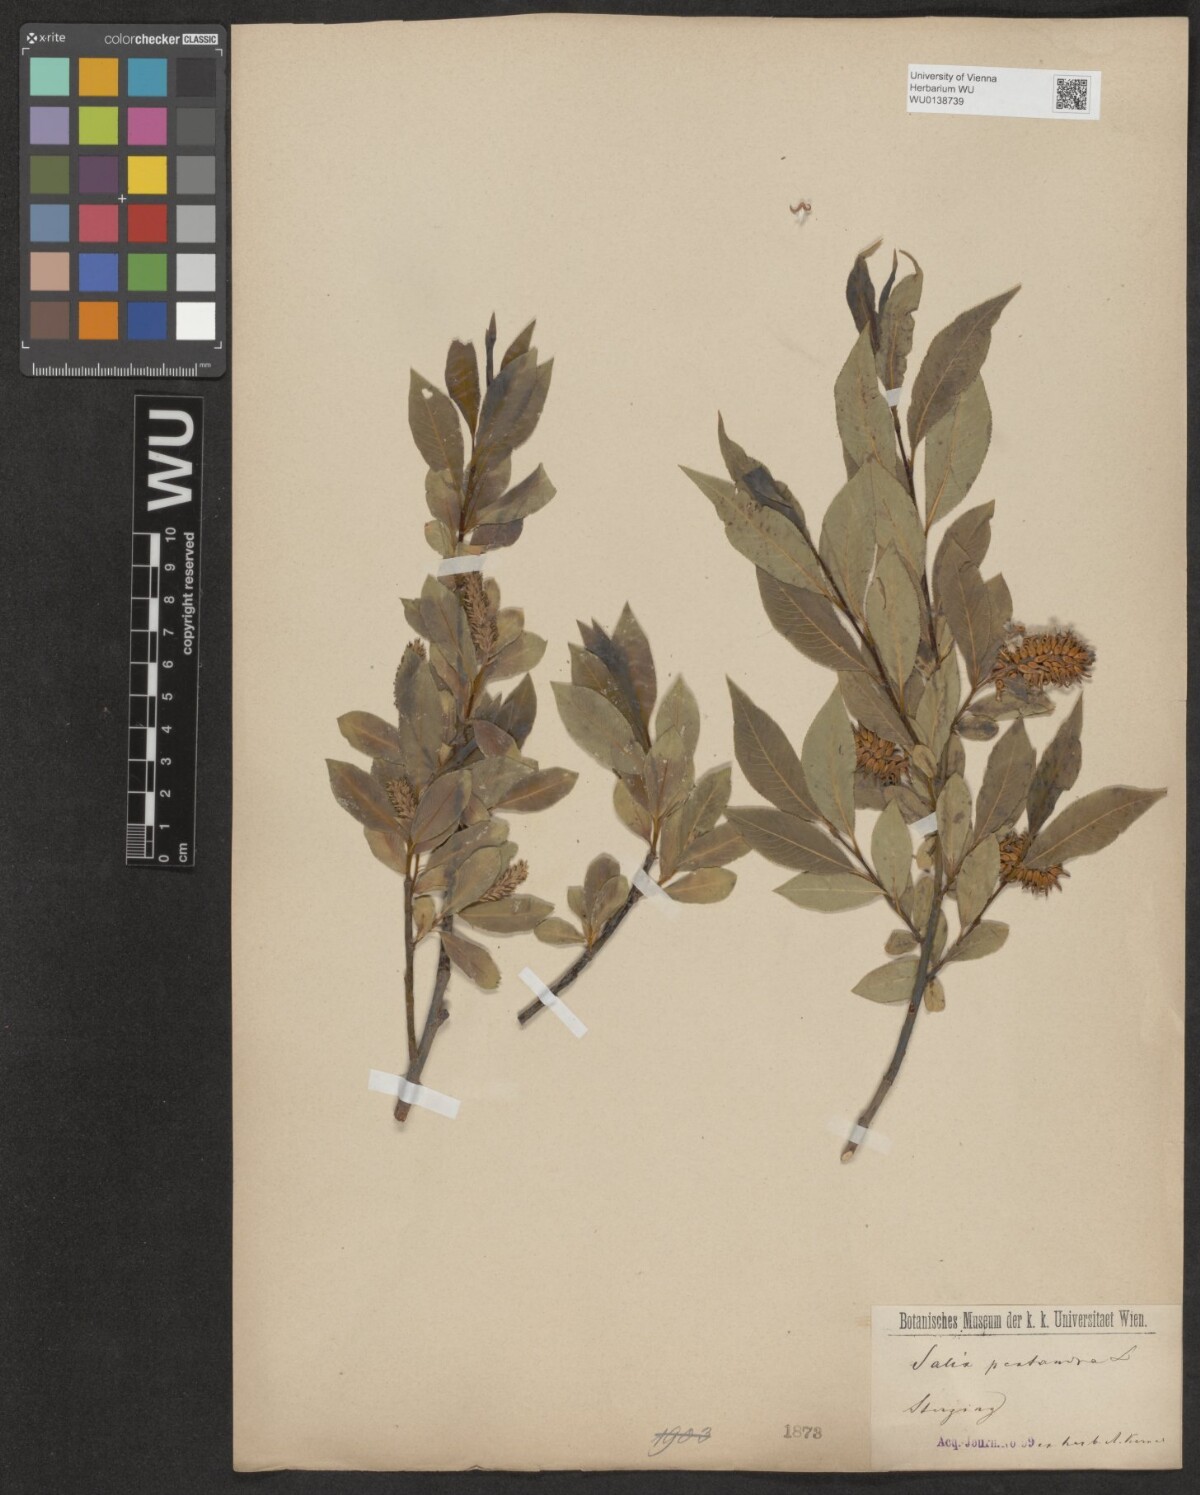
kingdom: Plantae
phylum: Tracheophyta
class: Magnoliopsida
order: Malpighiales
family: Salicaceae
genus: Salix
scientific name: Salix pentandra
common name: Bay willow
